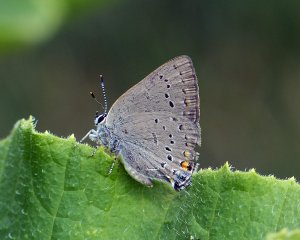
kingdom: Animalia
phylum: Arthropoda
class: Insecta
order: Lepidoptera
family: Lycaenidae
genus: Strymon
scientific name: Strymon sylvinus
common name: Sylvan Hairstreak
